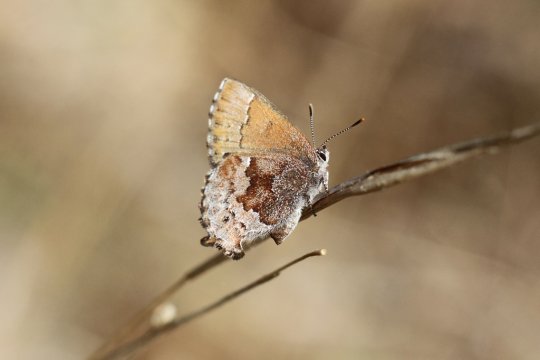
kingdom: Animalia
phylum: Arthropoda
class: Insecta
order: Lepidoptera
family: Lycaenidae
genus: Thecla
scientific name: Thecla irus
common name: Frosted Elfin
